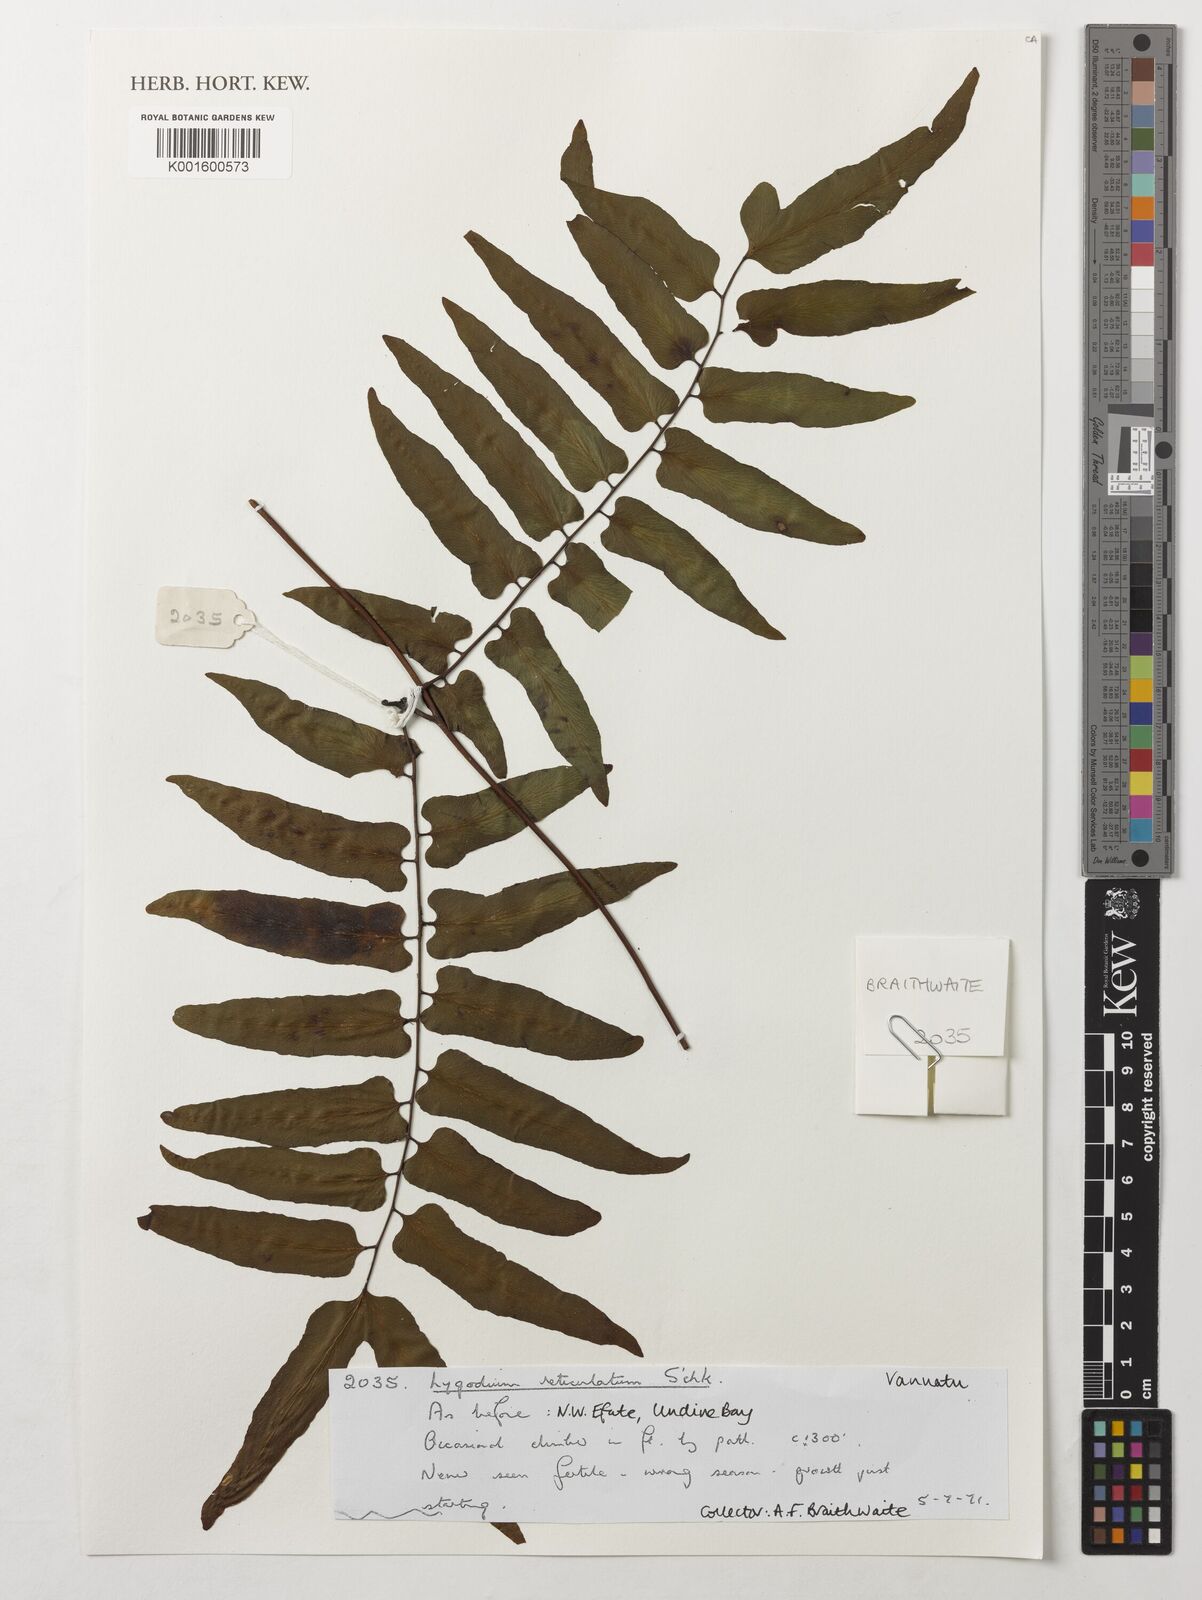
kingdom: Plantae
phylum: Tracheophyta
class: Polypodiopsida
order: Schizaeales
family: Lygodiaceae
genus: Lygodium
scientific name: Lygodium reticulatum
